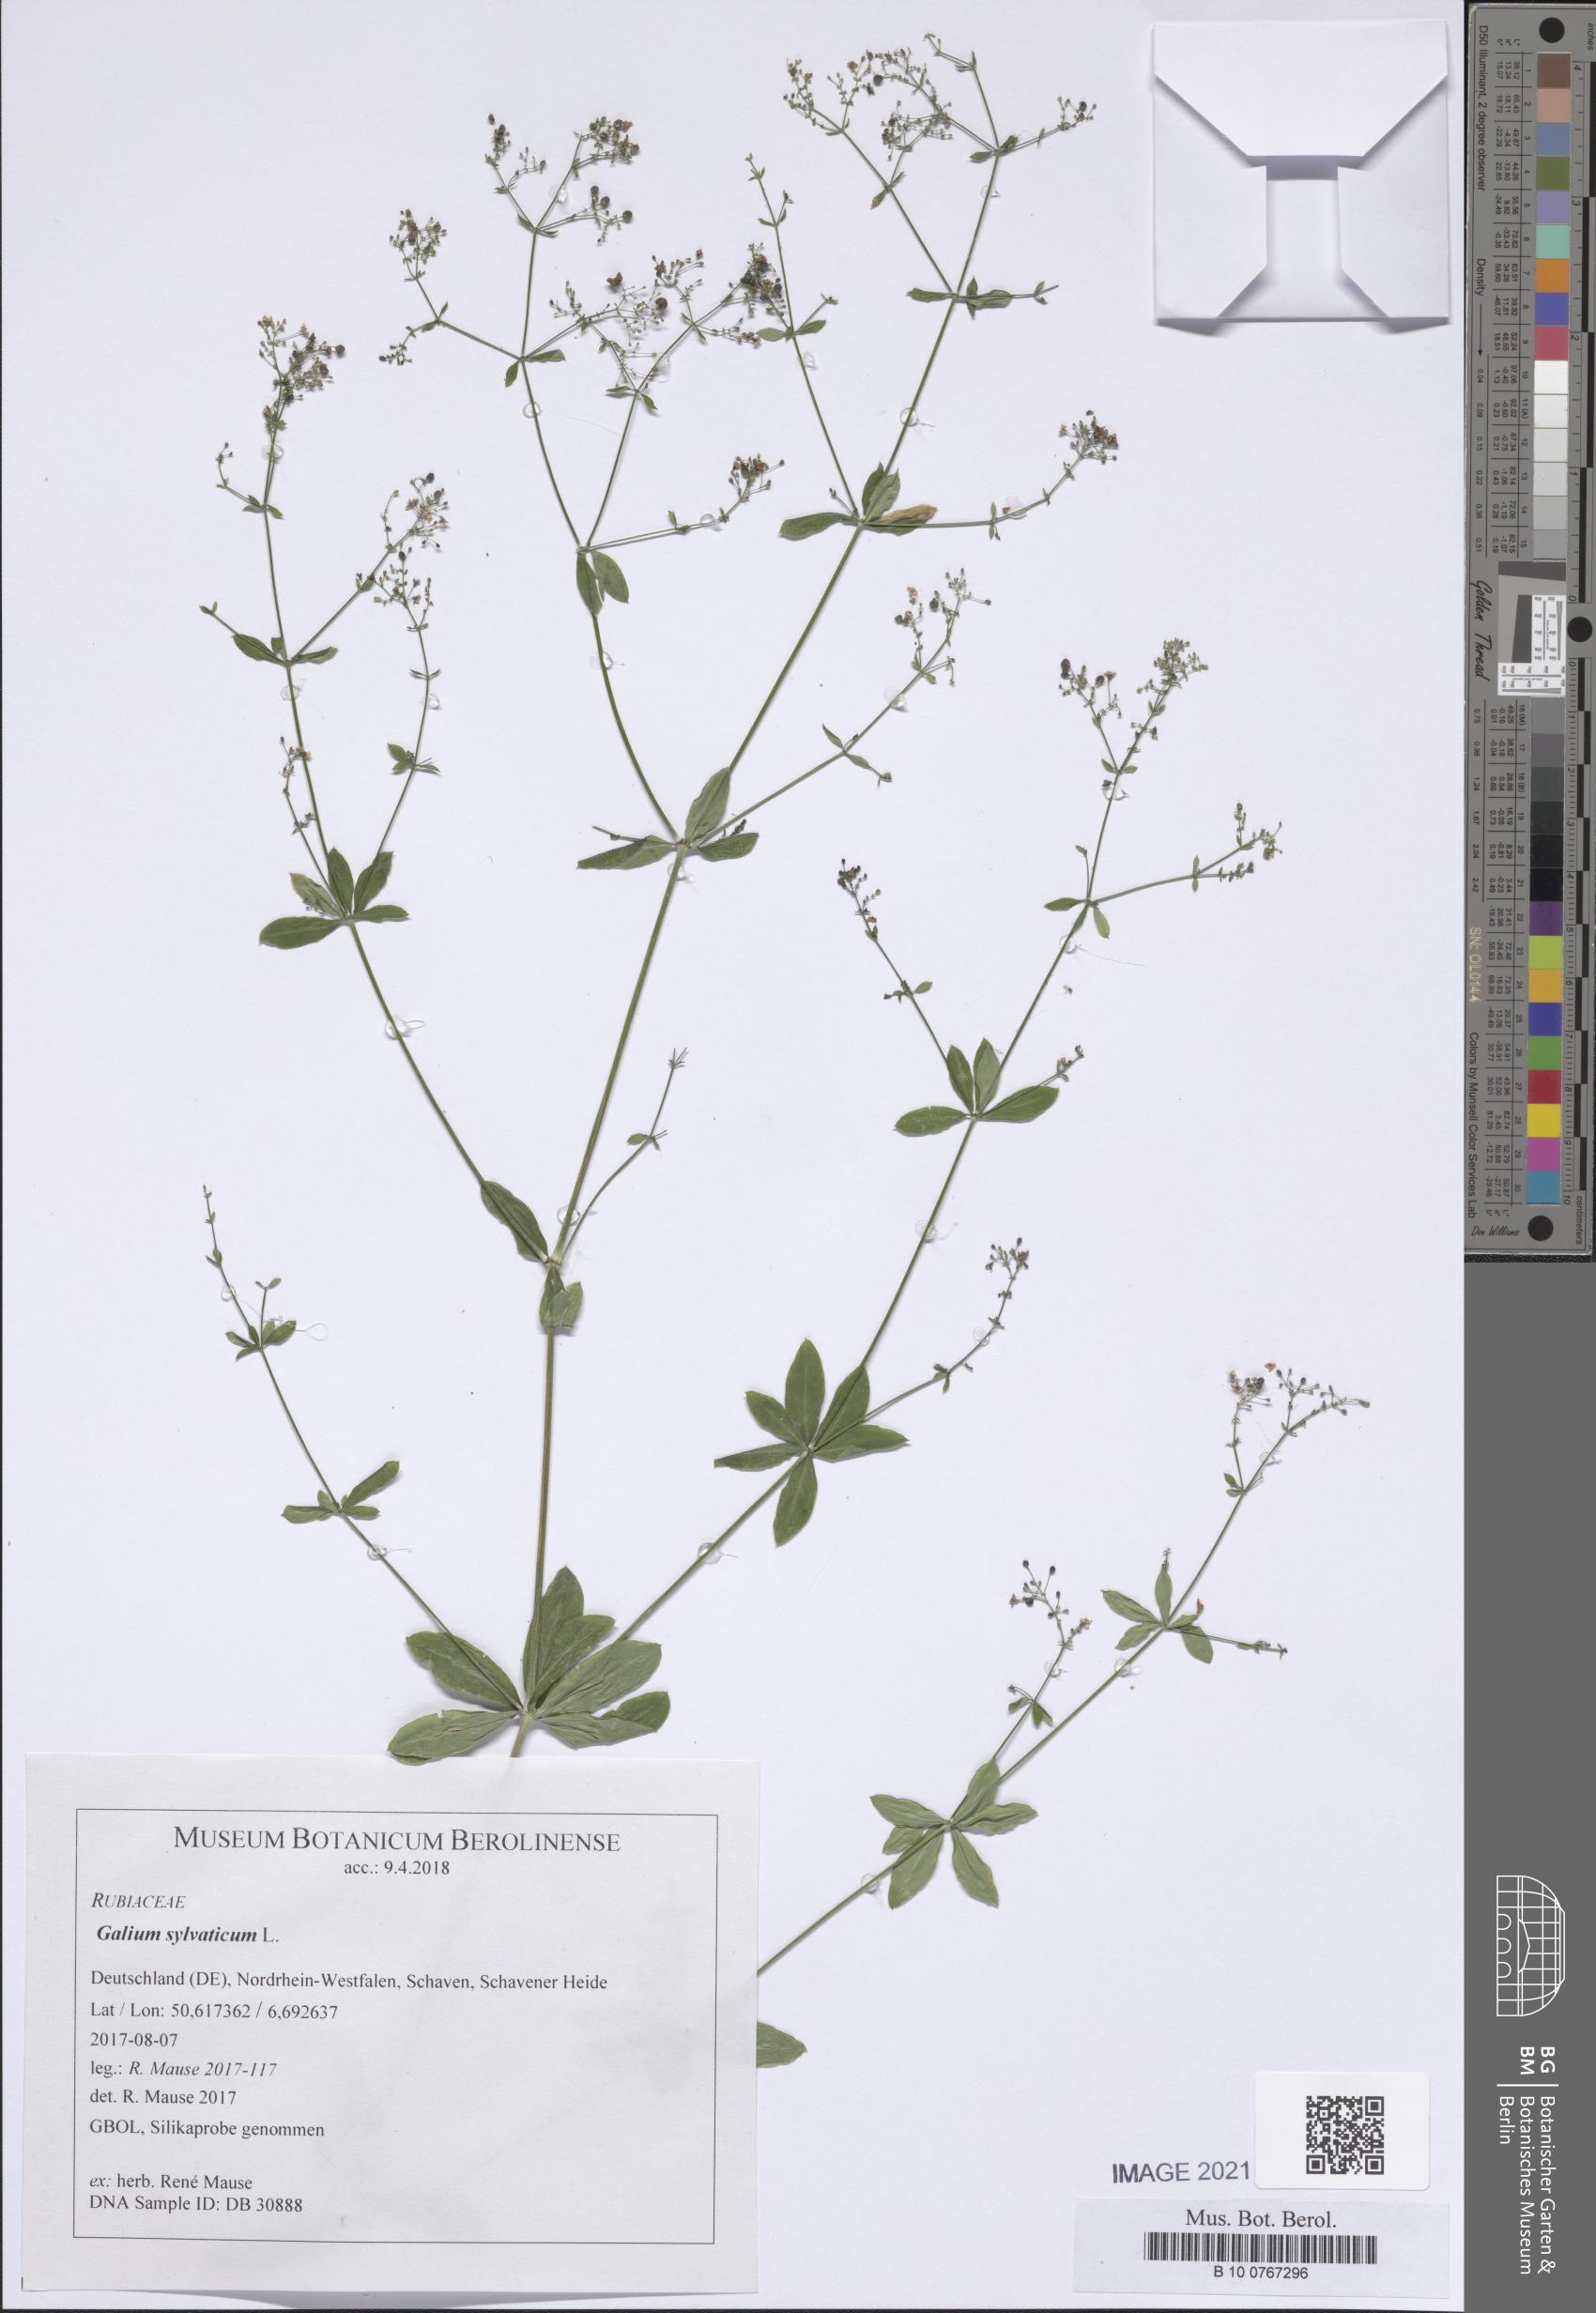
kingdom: Plantae
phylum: Tracheophyta
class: Magnoliopsida
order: Gentianales
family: Rubiaceae
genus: Galium
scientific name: Galium sylvaticum
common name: Wood bedstraw
